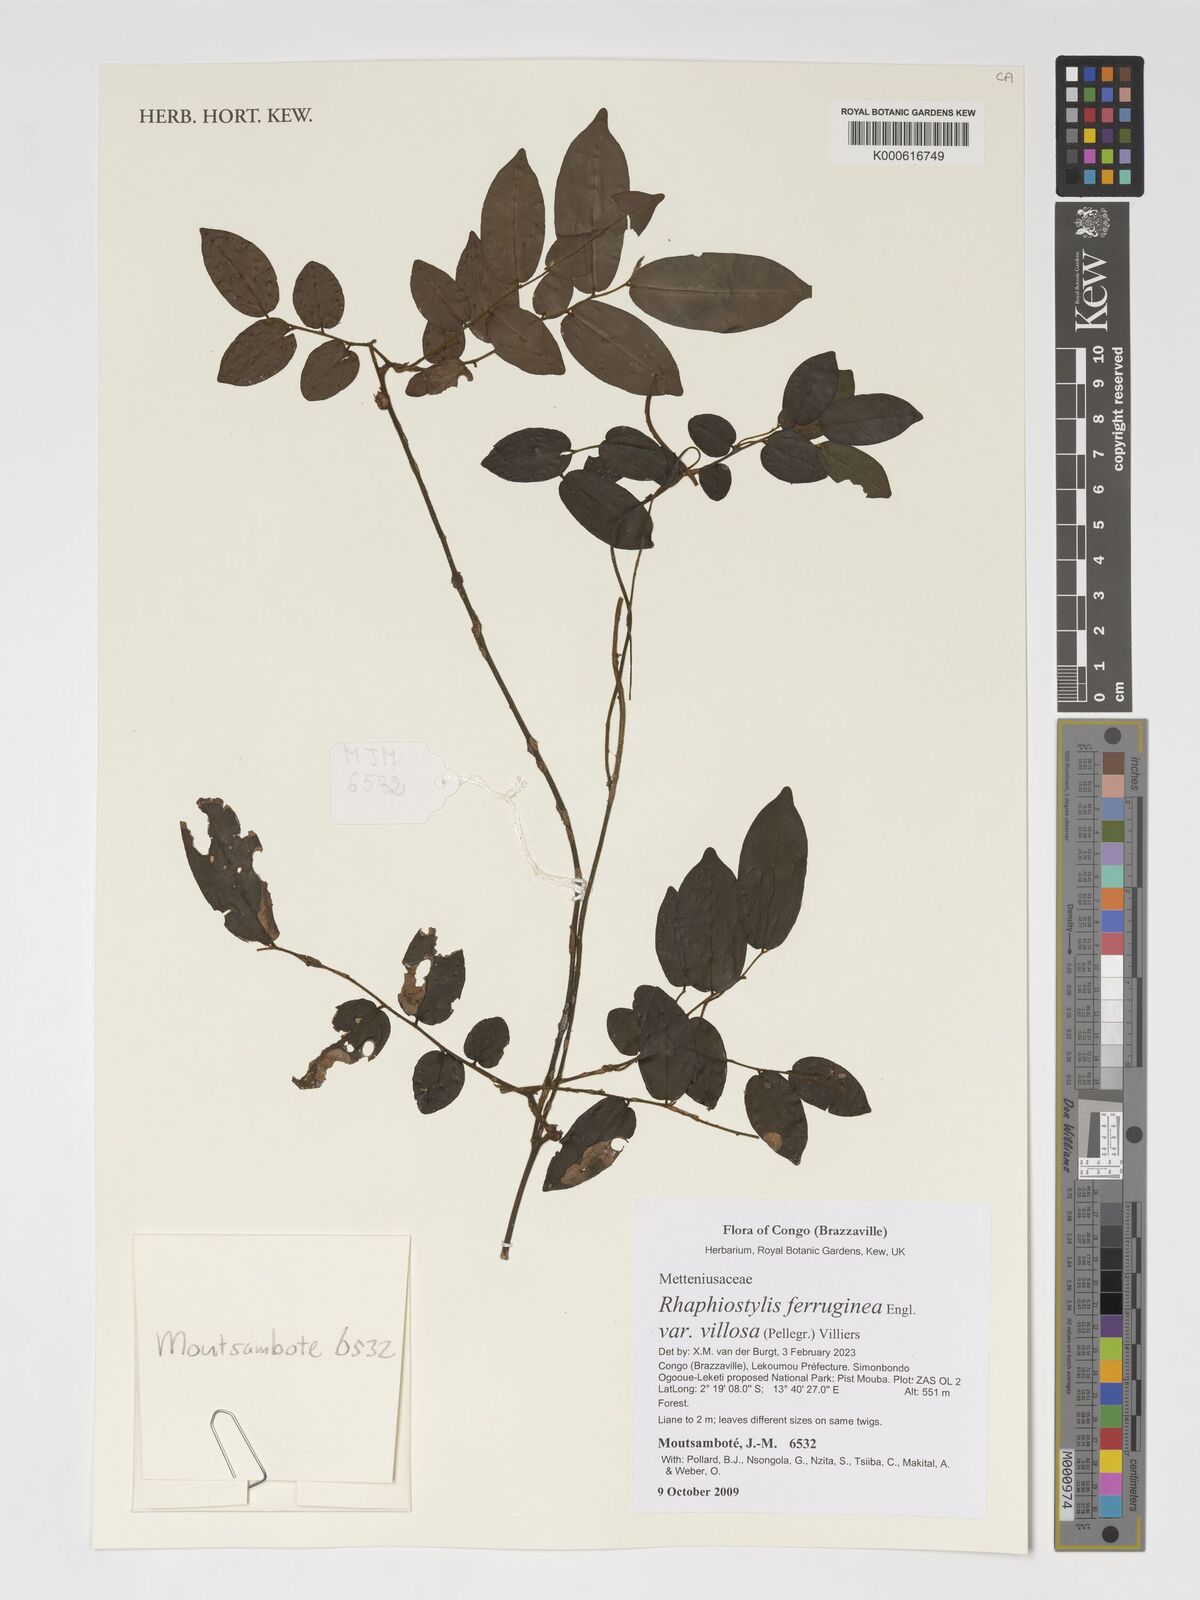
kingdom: Plantae
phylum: Tracheophyta
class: Magnoliopsida
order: Metteniusales
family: Metteniusaceae
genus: Rhaphiostylis
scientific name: Rhaphiostylis ferruginea
